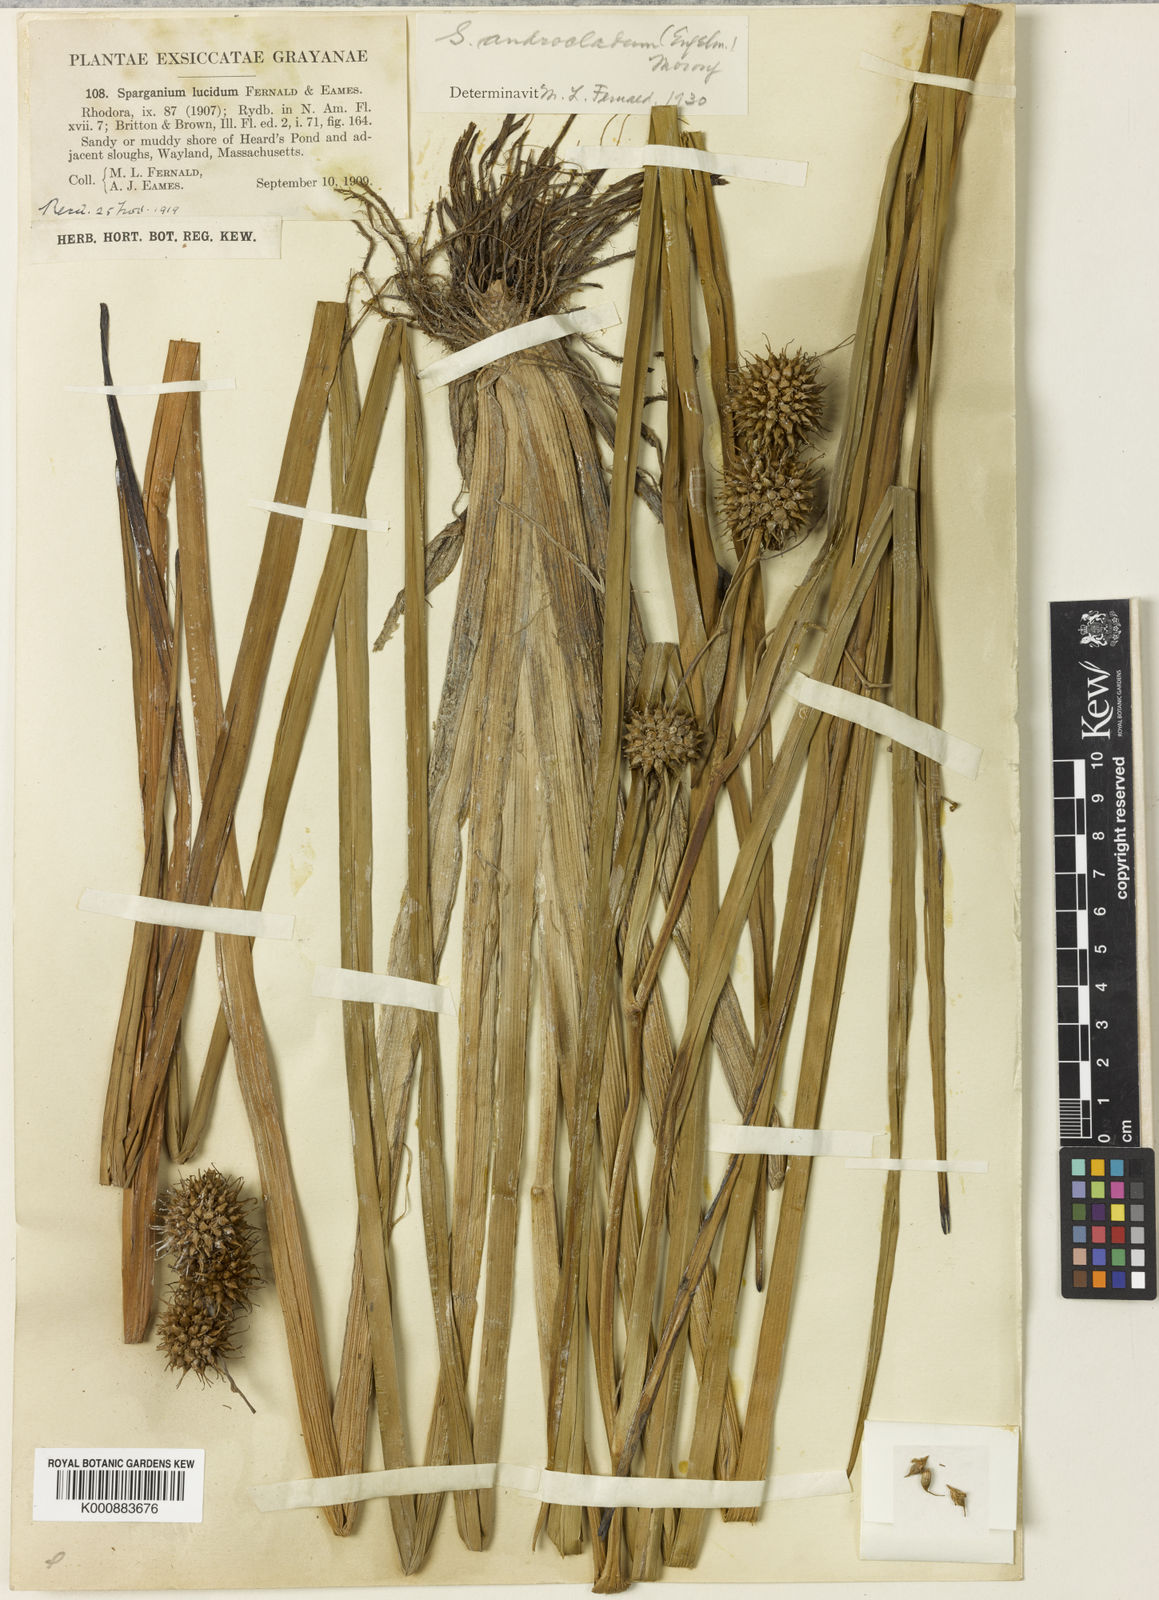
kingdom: Plantae
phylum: Tracheophyta
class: Liliopsida
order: Poales
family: Typhaceae
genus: Sparganium
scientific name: Sparganium androcladum
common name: Branched burreed
